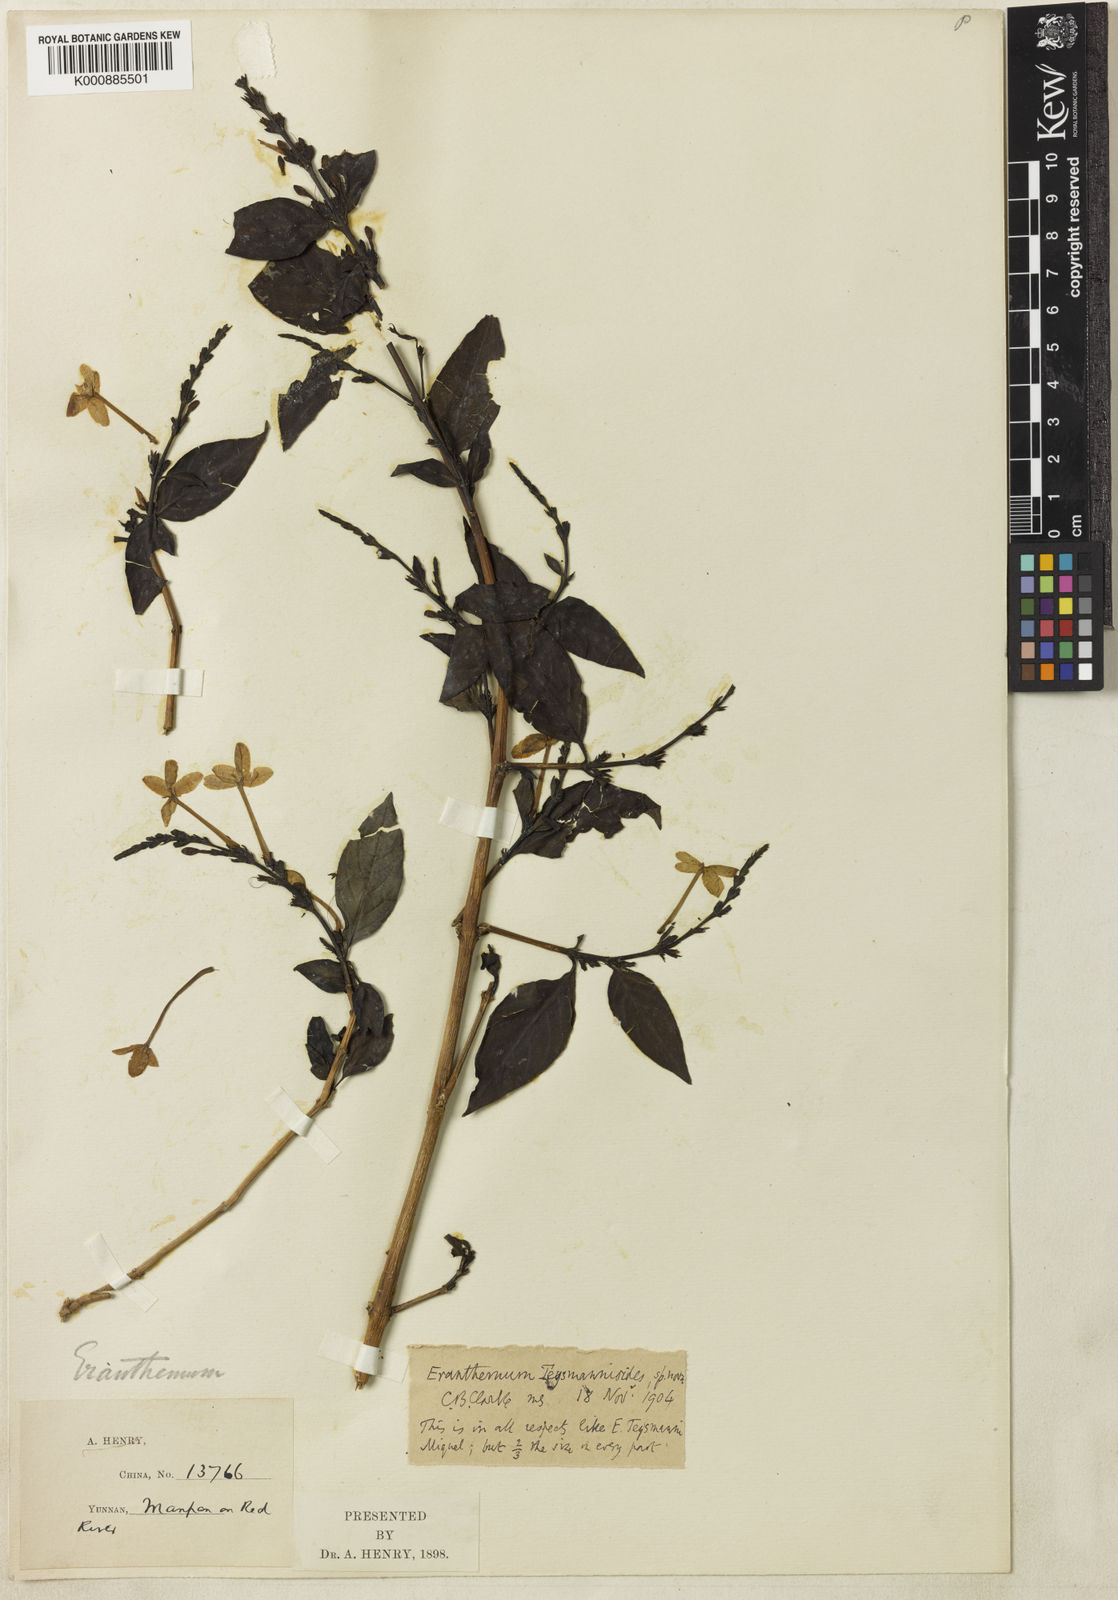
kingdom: Plantae
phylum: Tracheophyta
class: Magnoliopsida
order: Lamiales
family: Acanthaceae
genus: Pseuderanthemum
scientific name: Pseuderanthemum
